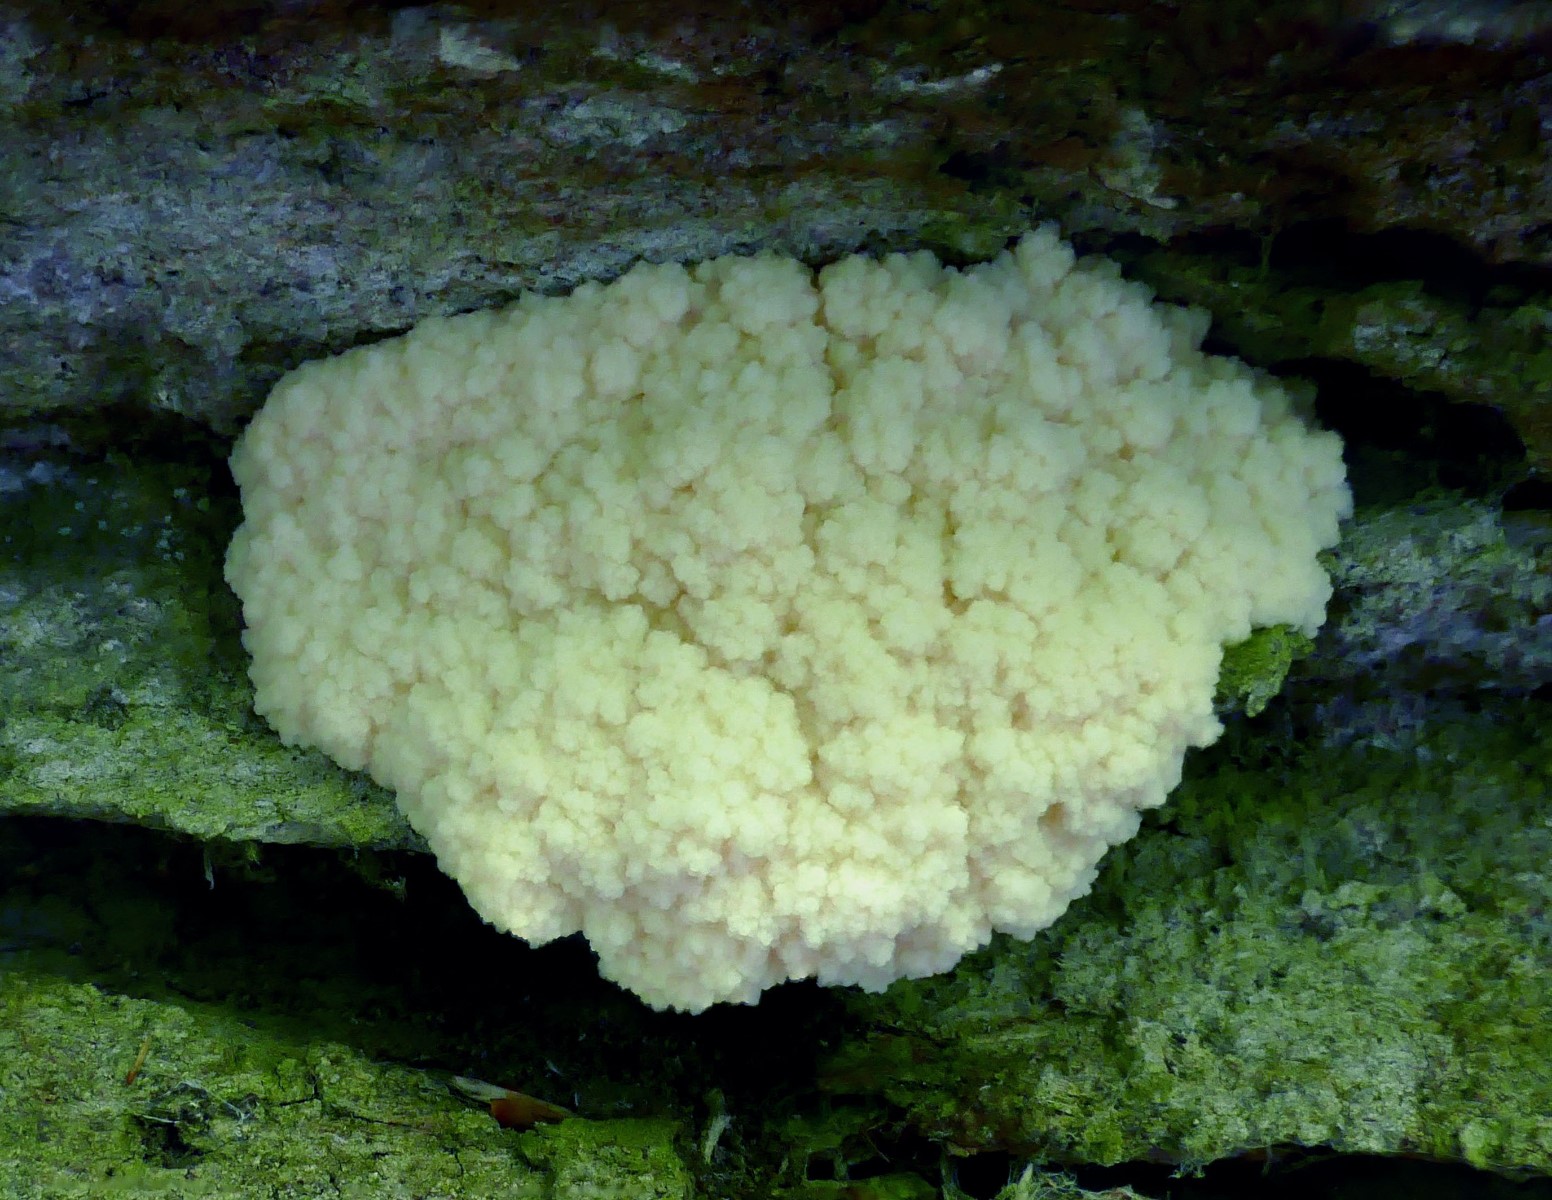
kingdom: Protozoa
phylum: Mycetozoa
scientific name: Mycetozoa
